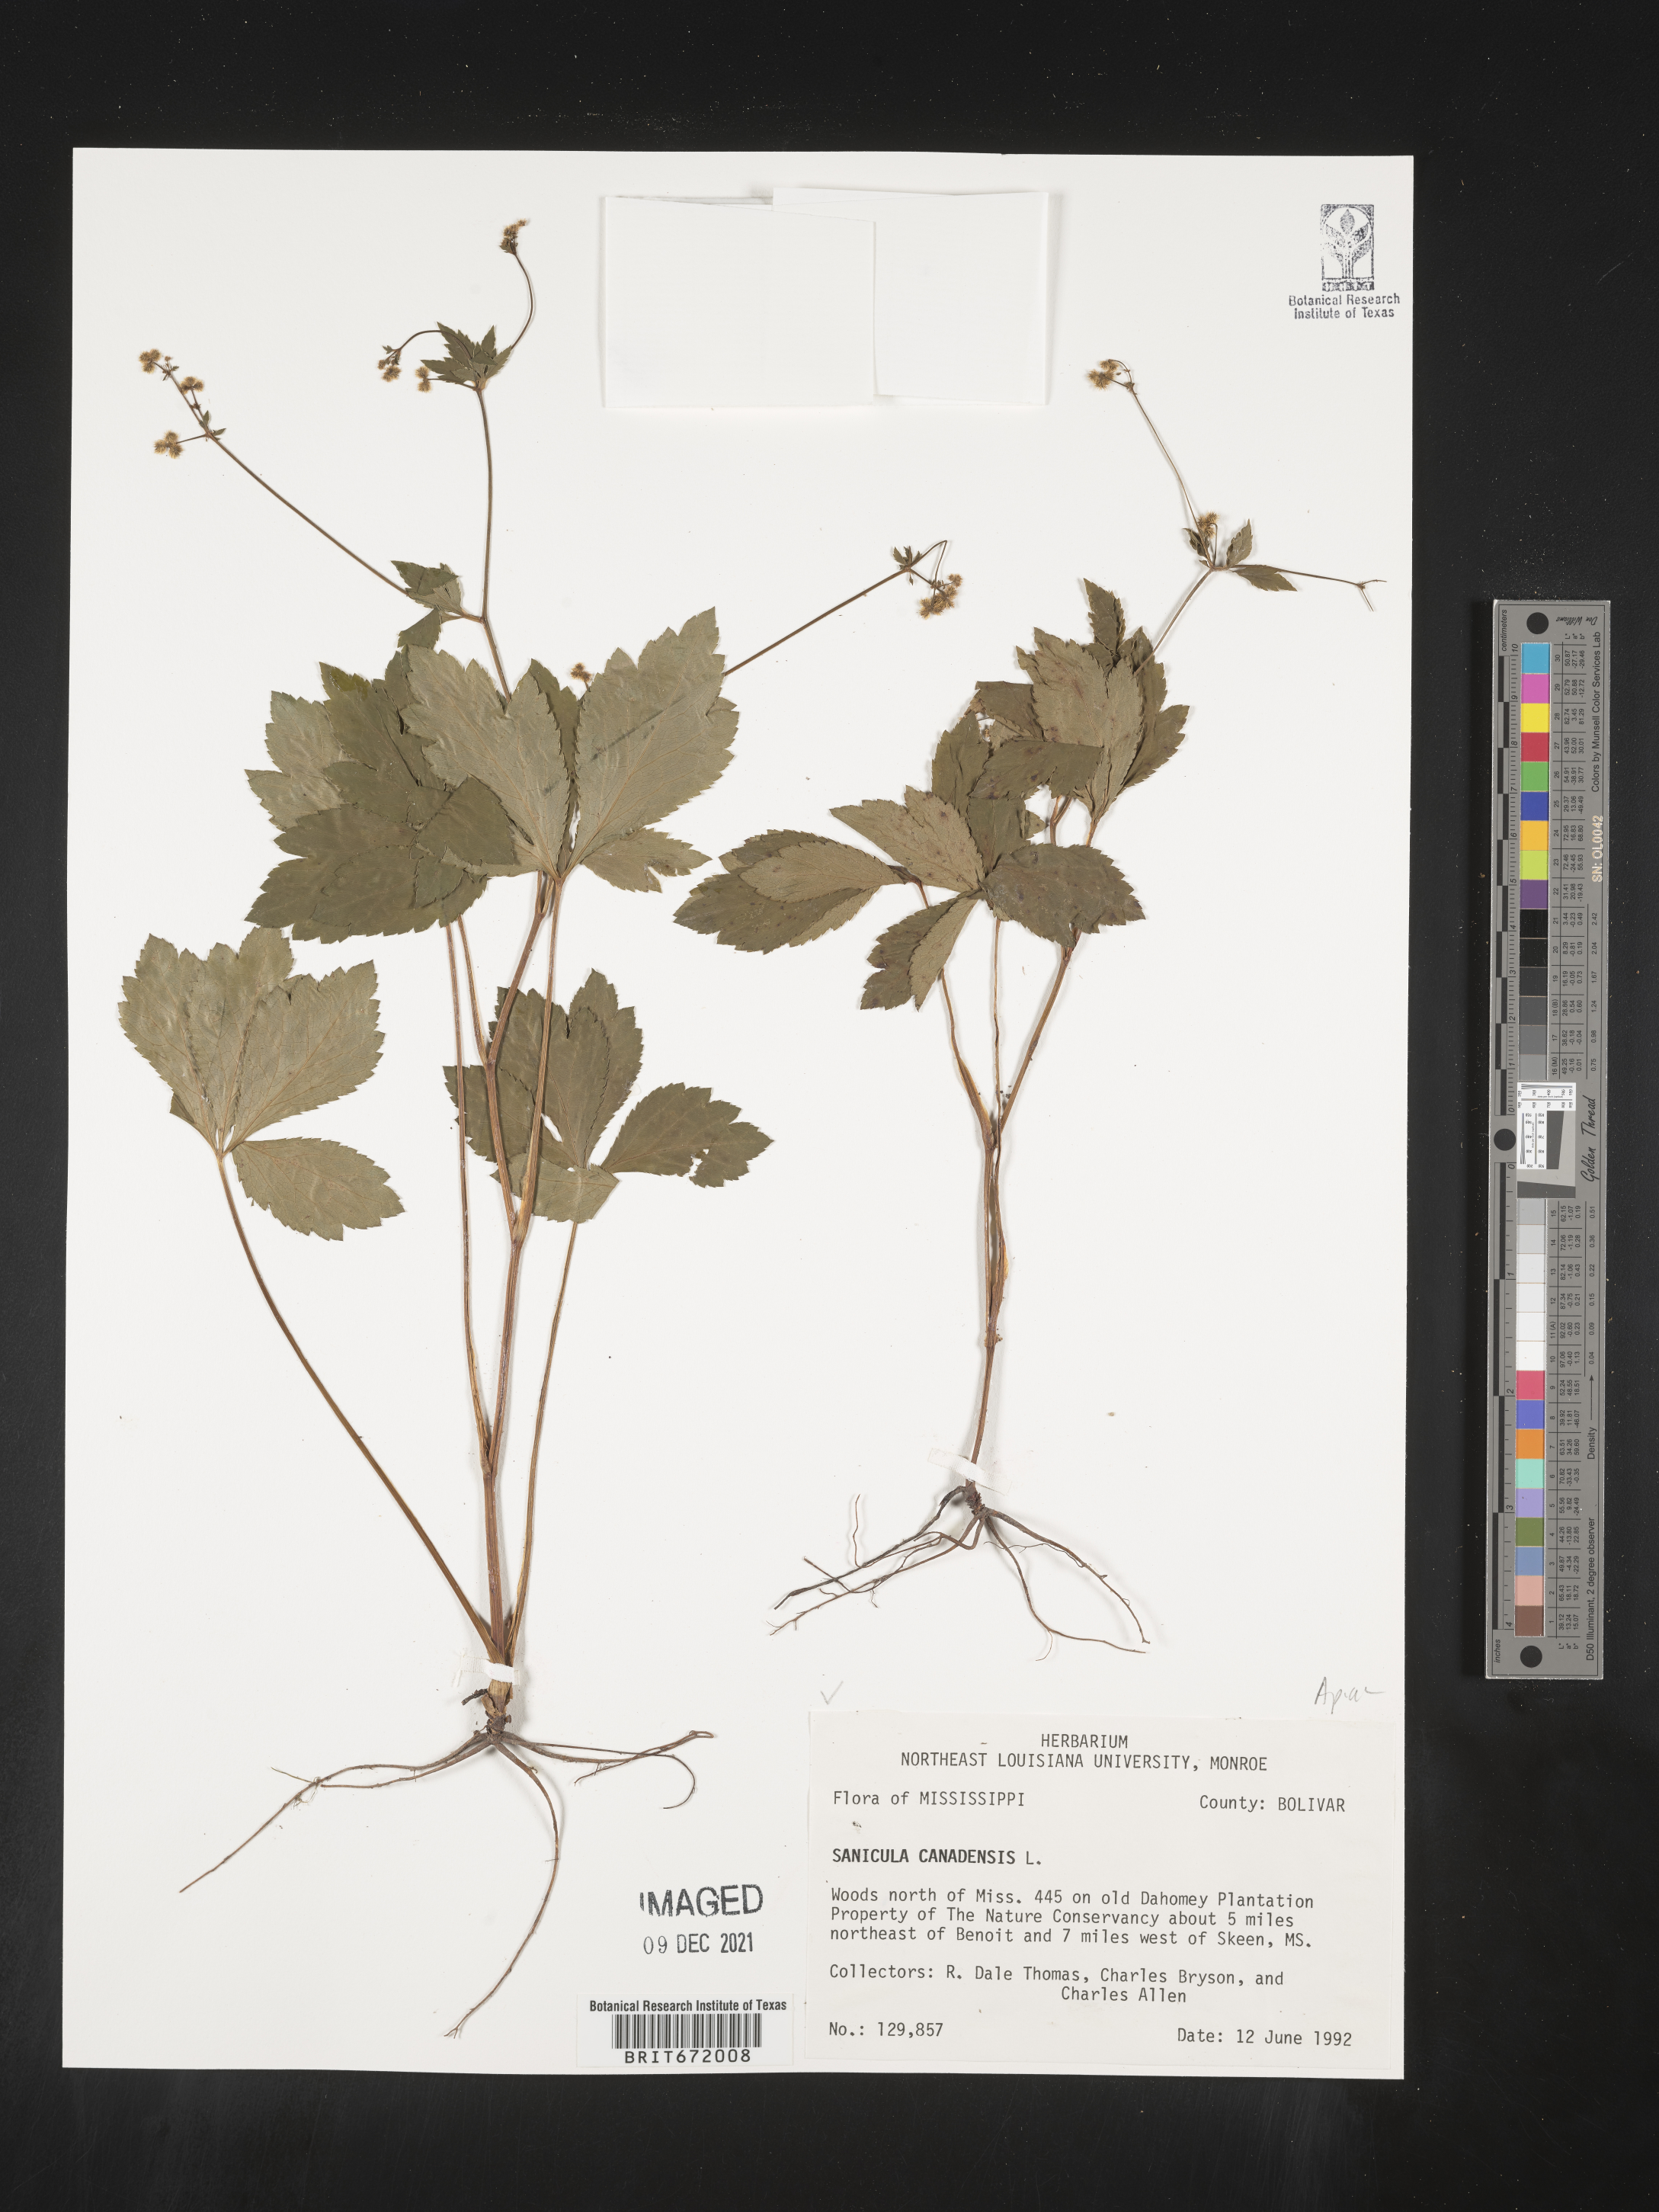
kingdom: Plantae
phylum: Tracheophyta
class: Magnoliopsida
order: Apiales
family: Apiaceae
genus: Sanicula
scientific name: Sanicula canadensis
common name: Canada sanicle
